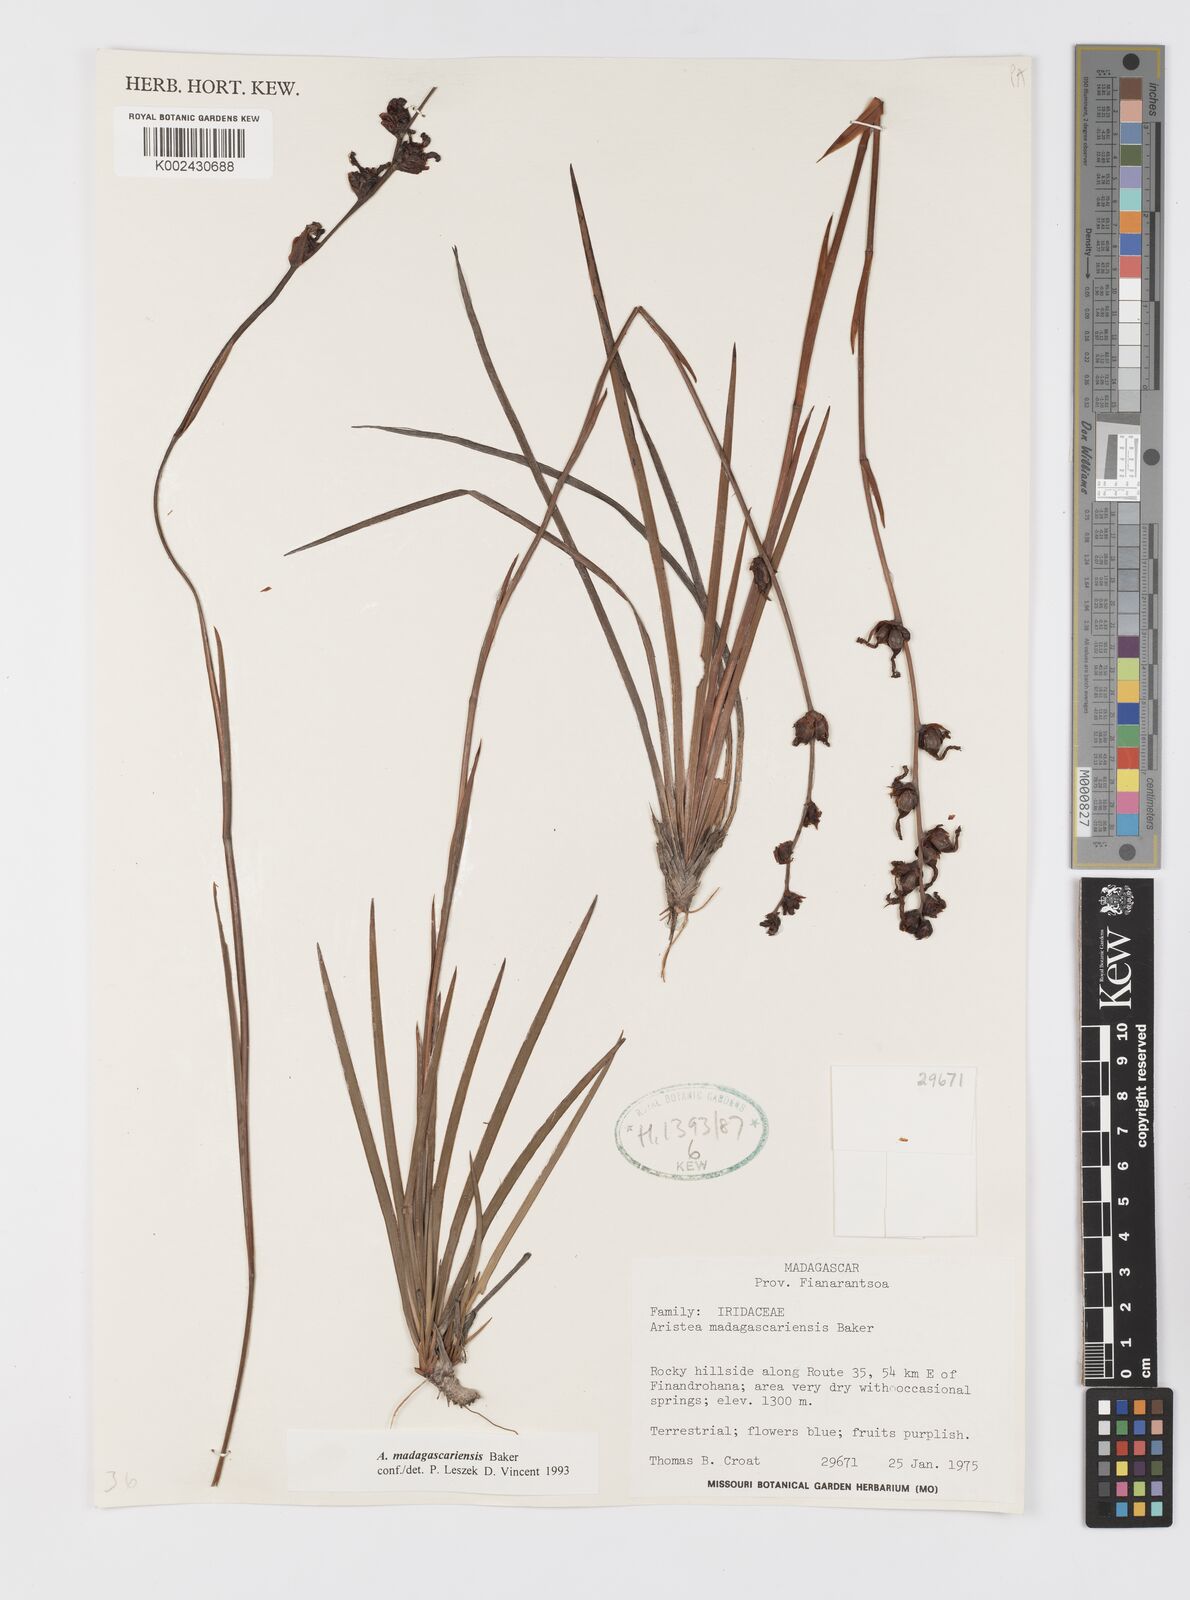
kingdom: Plantae
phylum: Tracheophyta
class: Liliopsida
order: Asparagales
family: Iridaceae
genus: Aristea
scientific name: Aristea madagascariensis
